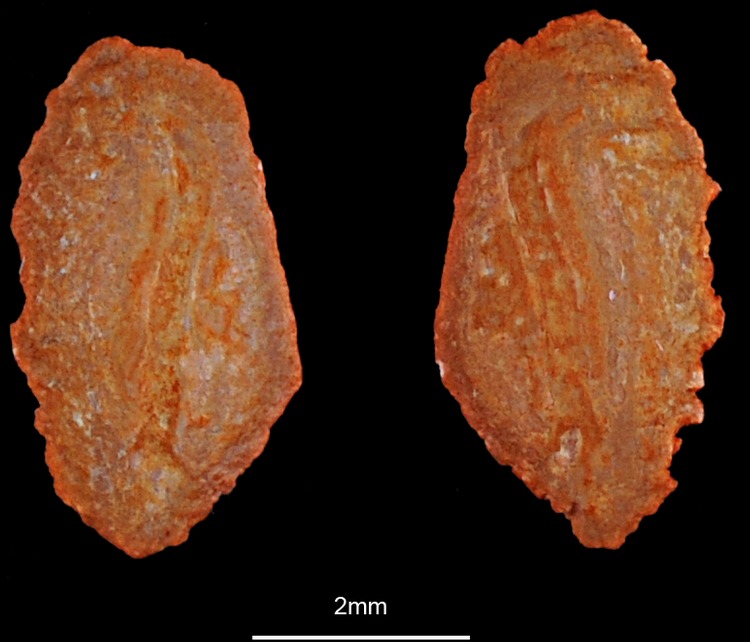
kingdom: Animalia
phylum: Chordata
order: Mugiliformes
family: Mugilidae
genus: Chelon
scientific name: Chelon auratus
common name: Golden grey mullet
